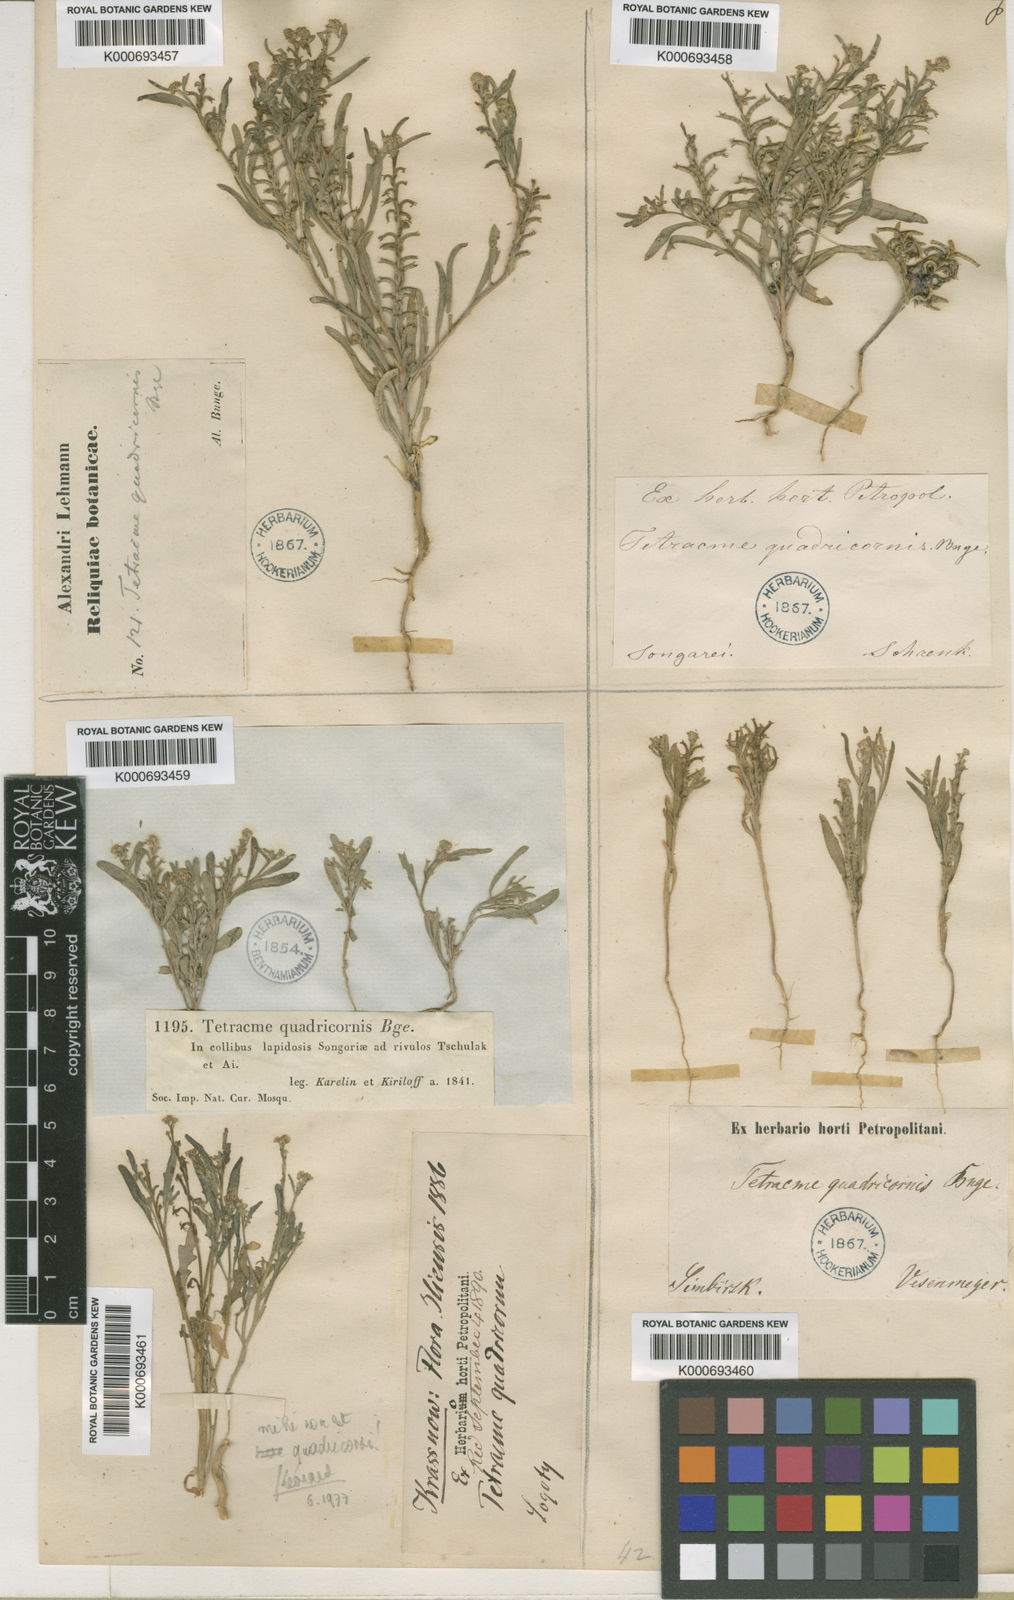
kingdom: Plantae
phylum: Tracheophyta
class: Magnoliopsida
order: Brassicales
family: Brassicaceae
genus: Tetracme
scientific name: Tetracme quadricornis
